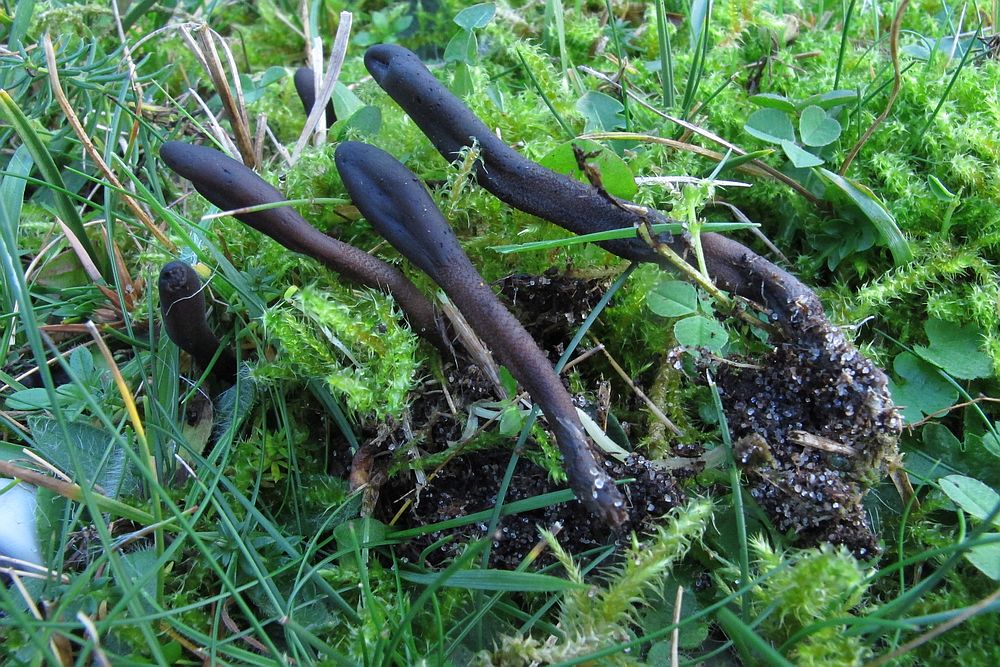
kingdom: Fungi
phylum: Ascomycota
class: Geoglossomycetes
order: Geoglossales
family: Geoglossaceae
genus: Hemileucoglossum
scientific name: Hemileucoglossum elongatum
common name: småsporet jordtunge
